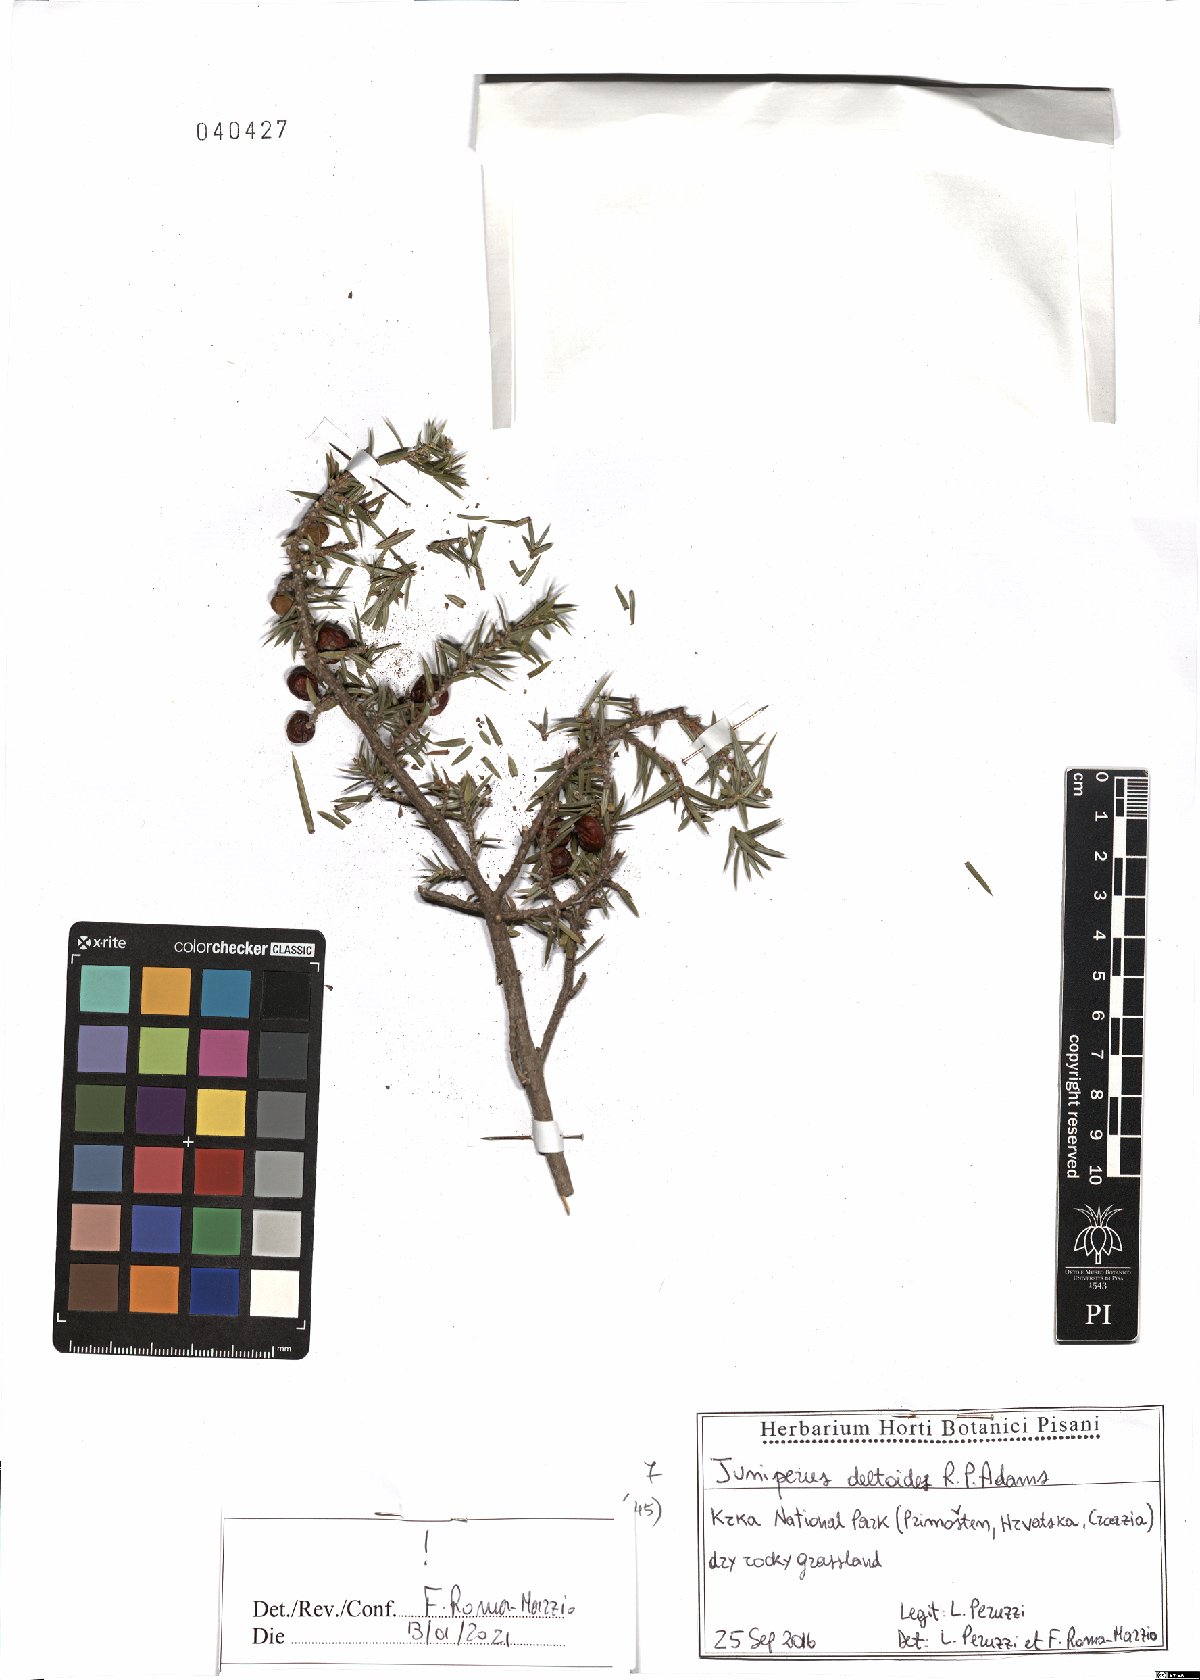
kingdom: Plantae
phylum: Tracheophyta
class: Pinopsida
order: Pinales
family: Cupressaceae
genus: Juniperus
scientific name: Juniperus oxycedrus
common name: Prickly juniper
